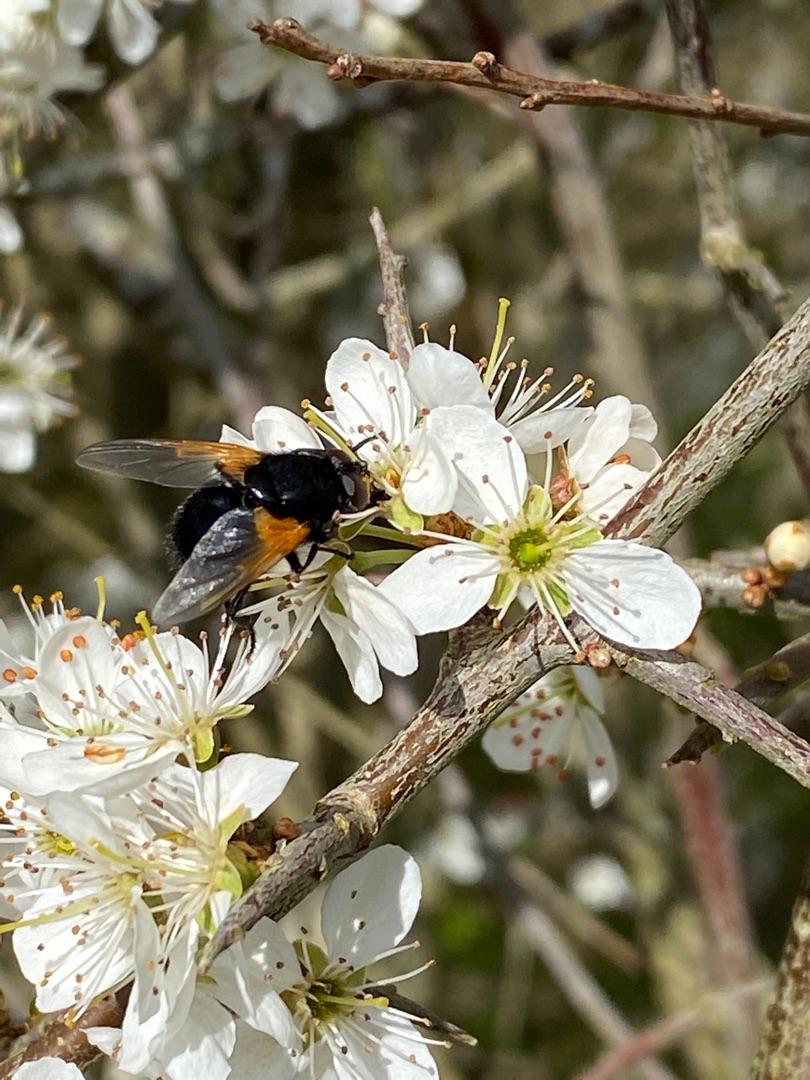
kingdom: Animalia
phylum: Arthropoda
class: Insecta
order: Diptera
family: Muscidae
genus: Mesembrina
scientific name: Mesembrina meridiana
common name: Gulvinget flue
